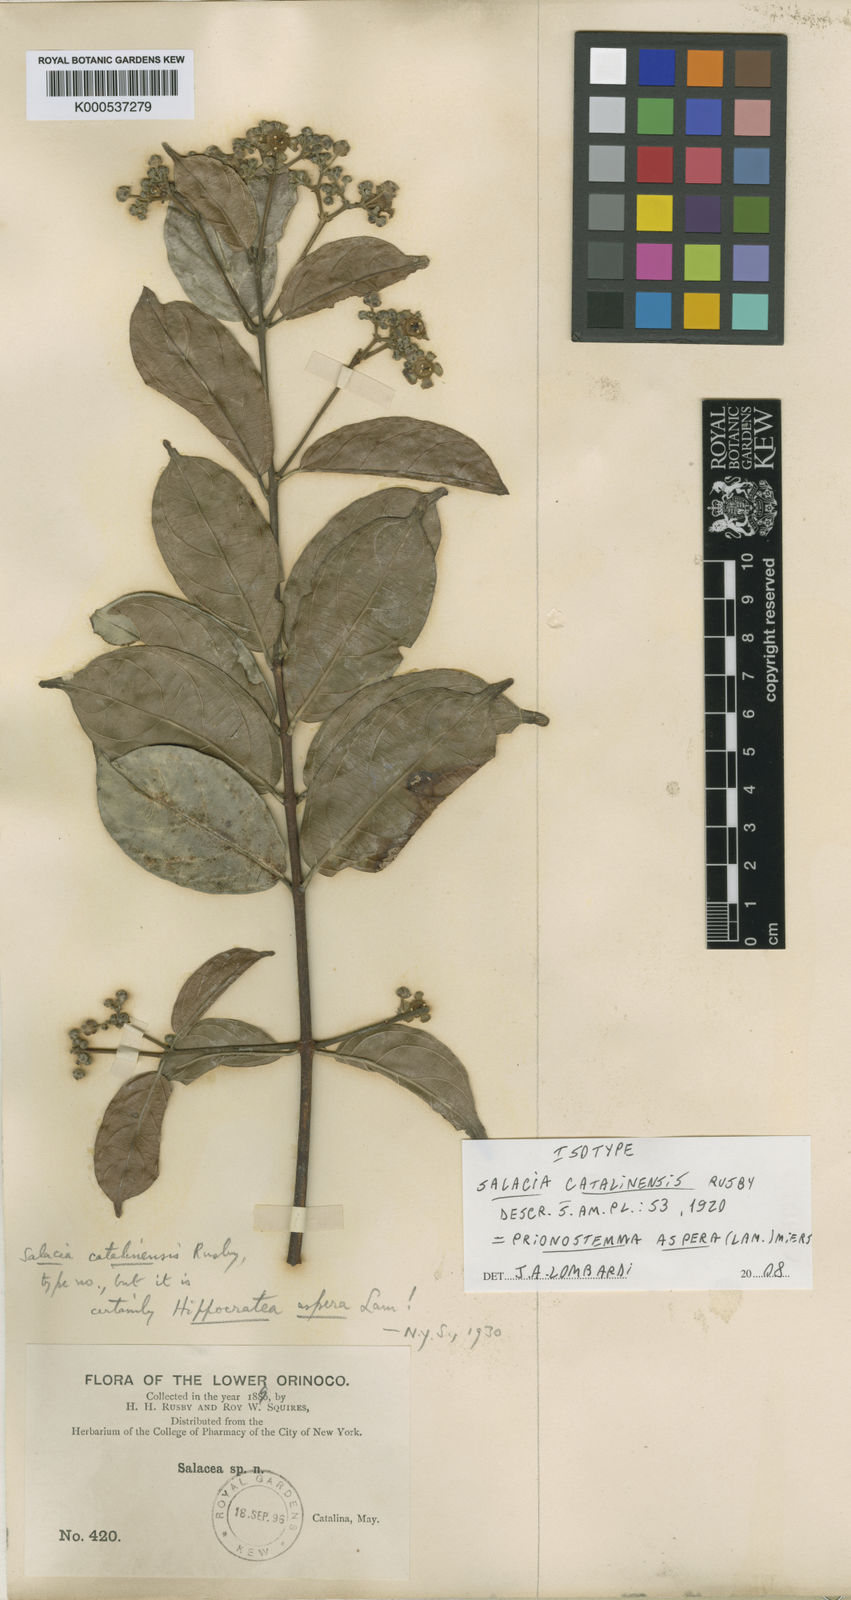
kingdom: Plantae
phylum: Tracheophyta
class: Magnoliopsida
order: Celastrales
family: Celastraceae
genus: Prionostemma
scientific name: Prionostemma aspera
